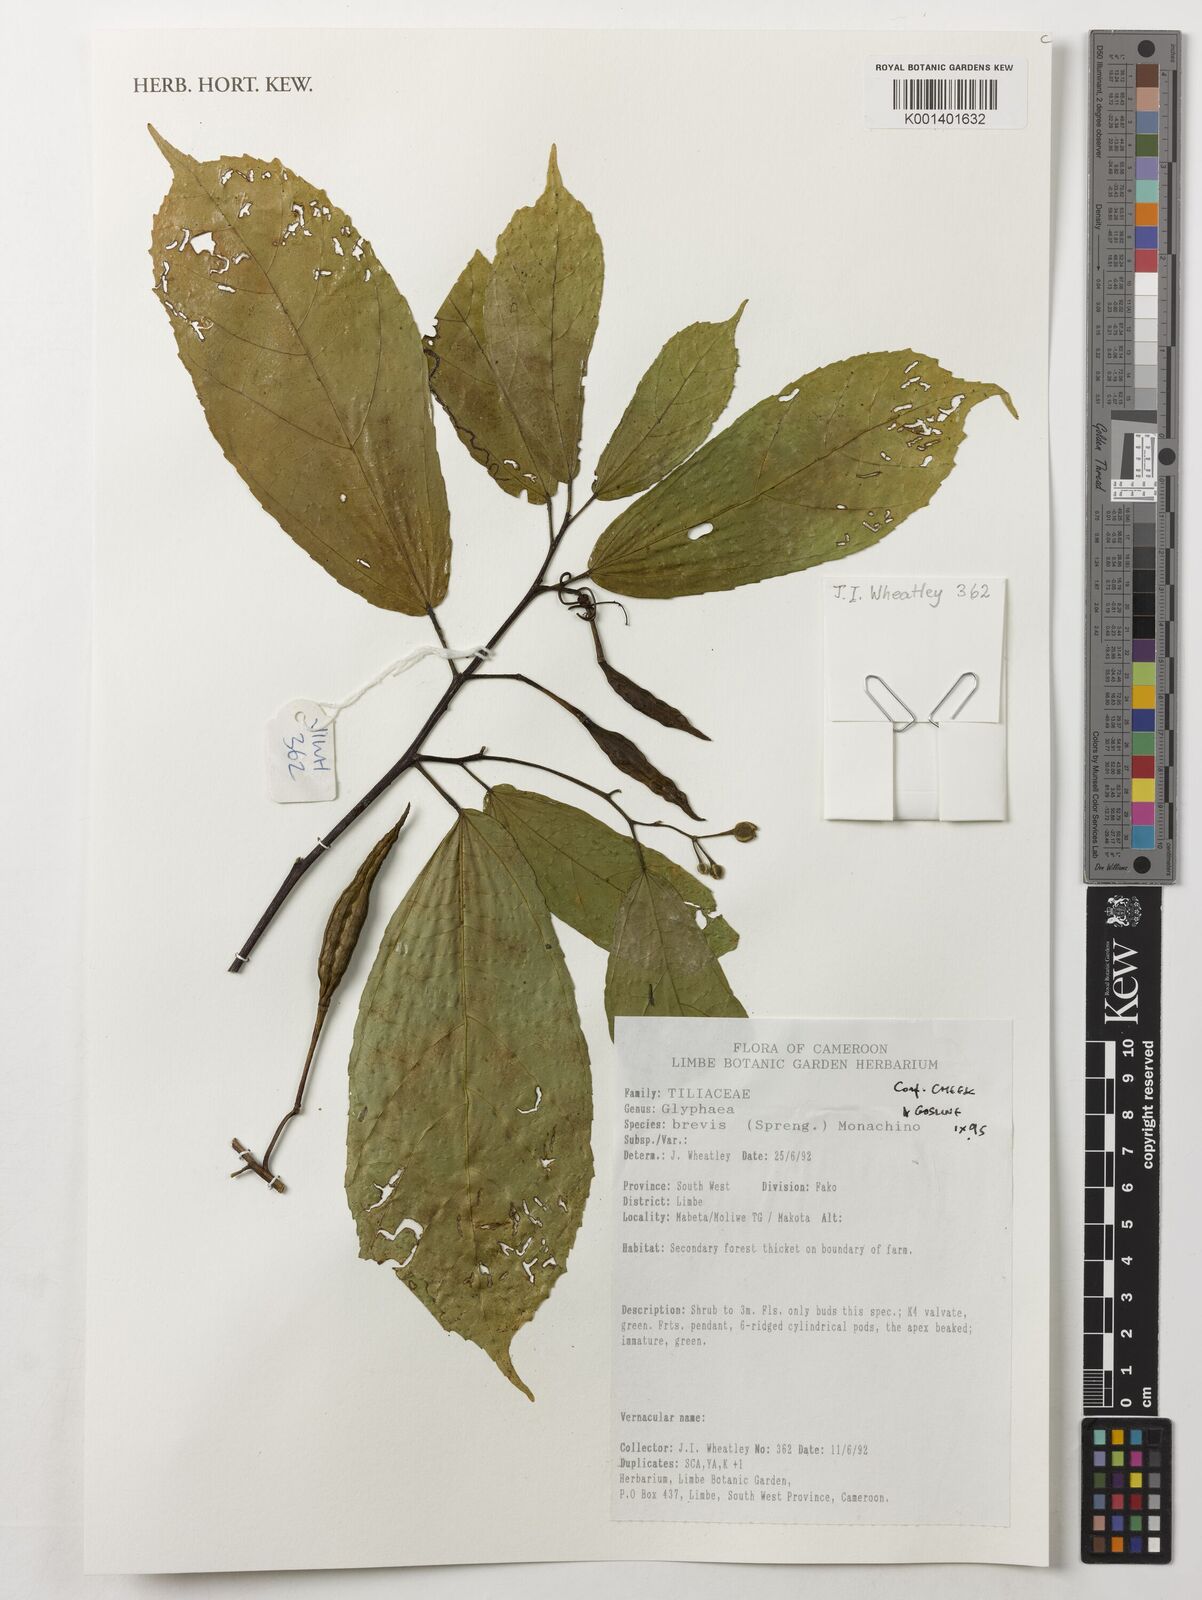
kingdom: Plantae
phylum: Tracheophyta
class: Magnoliopsida
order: Malvales
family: Malvaceae
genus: Glyphaea
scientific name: Glyphaea brevis
